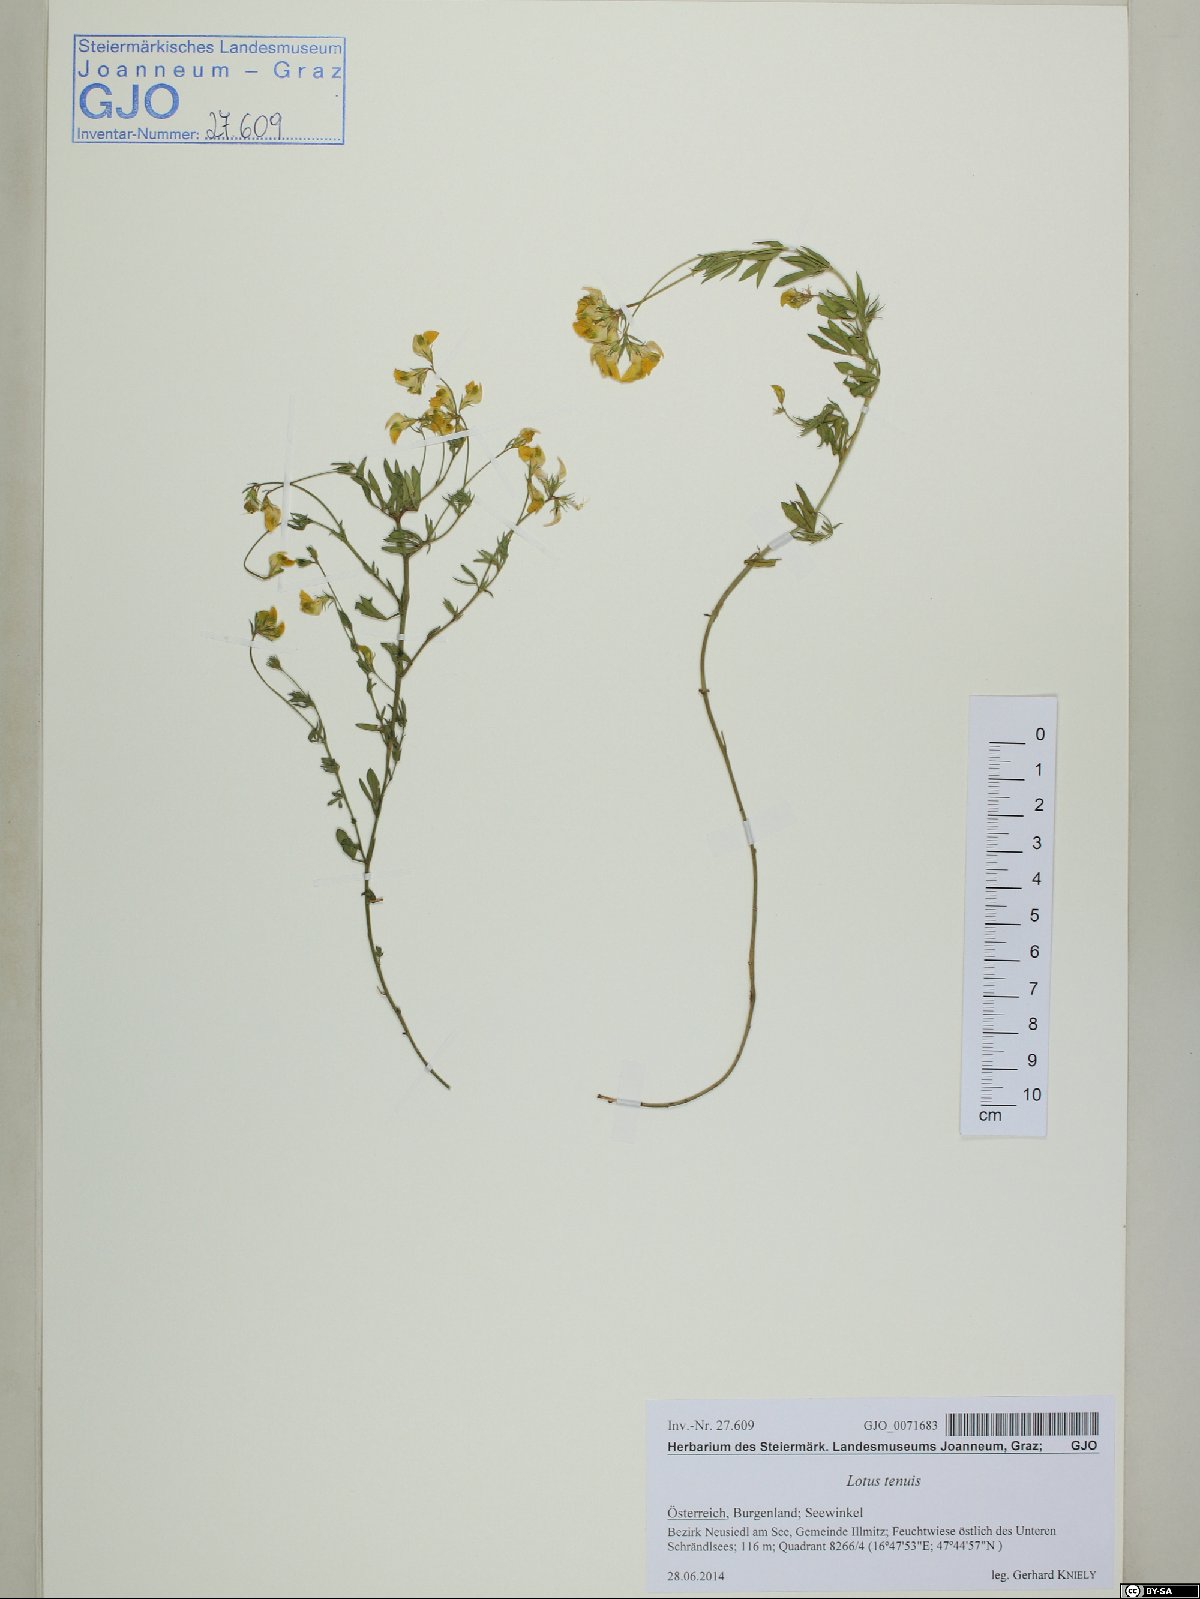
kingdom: Plantae
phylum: Tracheophyta
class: Magnoliopsida
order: Fabales
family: Fabaceae
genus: Lotus
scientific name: Lotus tenuis
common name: Narrow-leaved bird's-foot-trefoil
